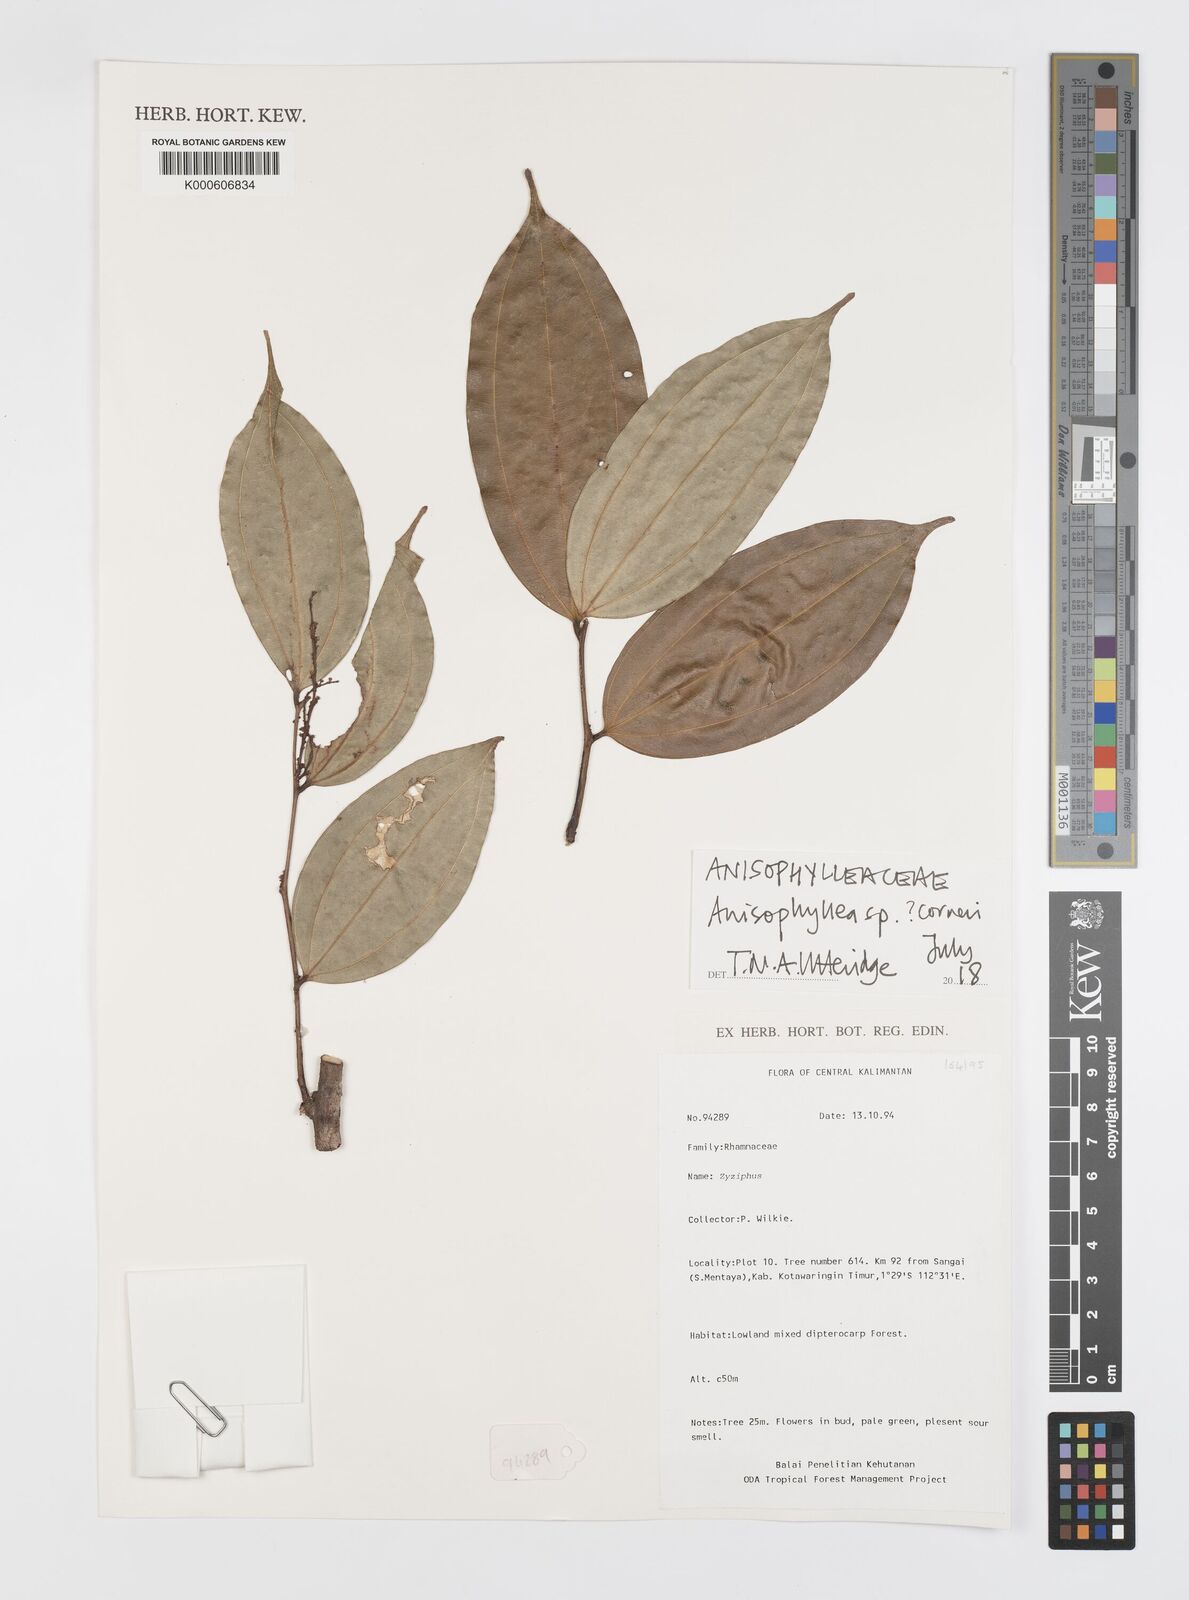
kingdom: Plantae
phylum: Tracheophyta
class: Magnoliopsida
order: Cucurbitales
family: Anisophylleaceae
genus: Anisophyllea
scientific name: Anisophyllea
